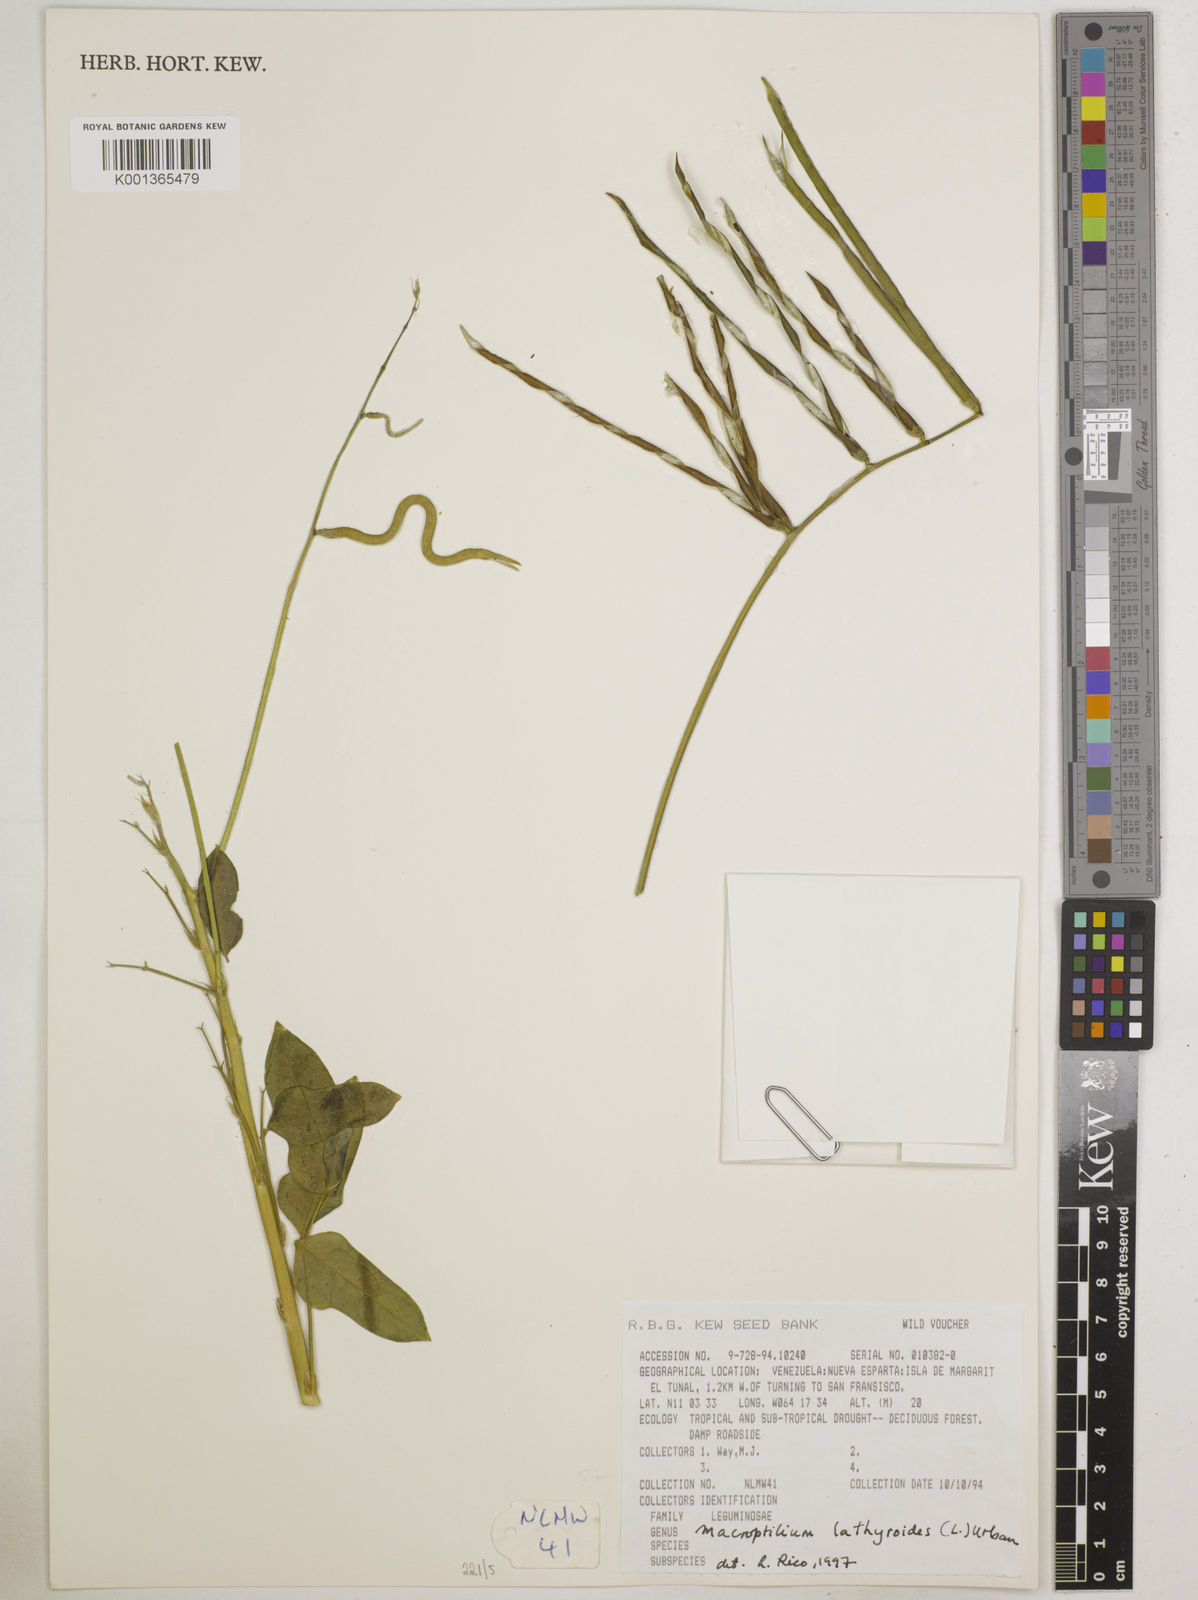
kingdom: Plantae
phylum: Tracheophyta
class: Magnoliopsida
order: Fabales
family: Fabaceae
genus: Macroptilium
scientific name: Macroptilium lathyroides
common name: Wild bushbean
